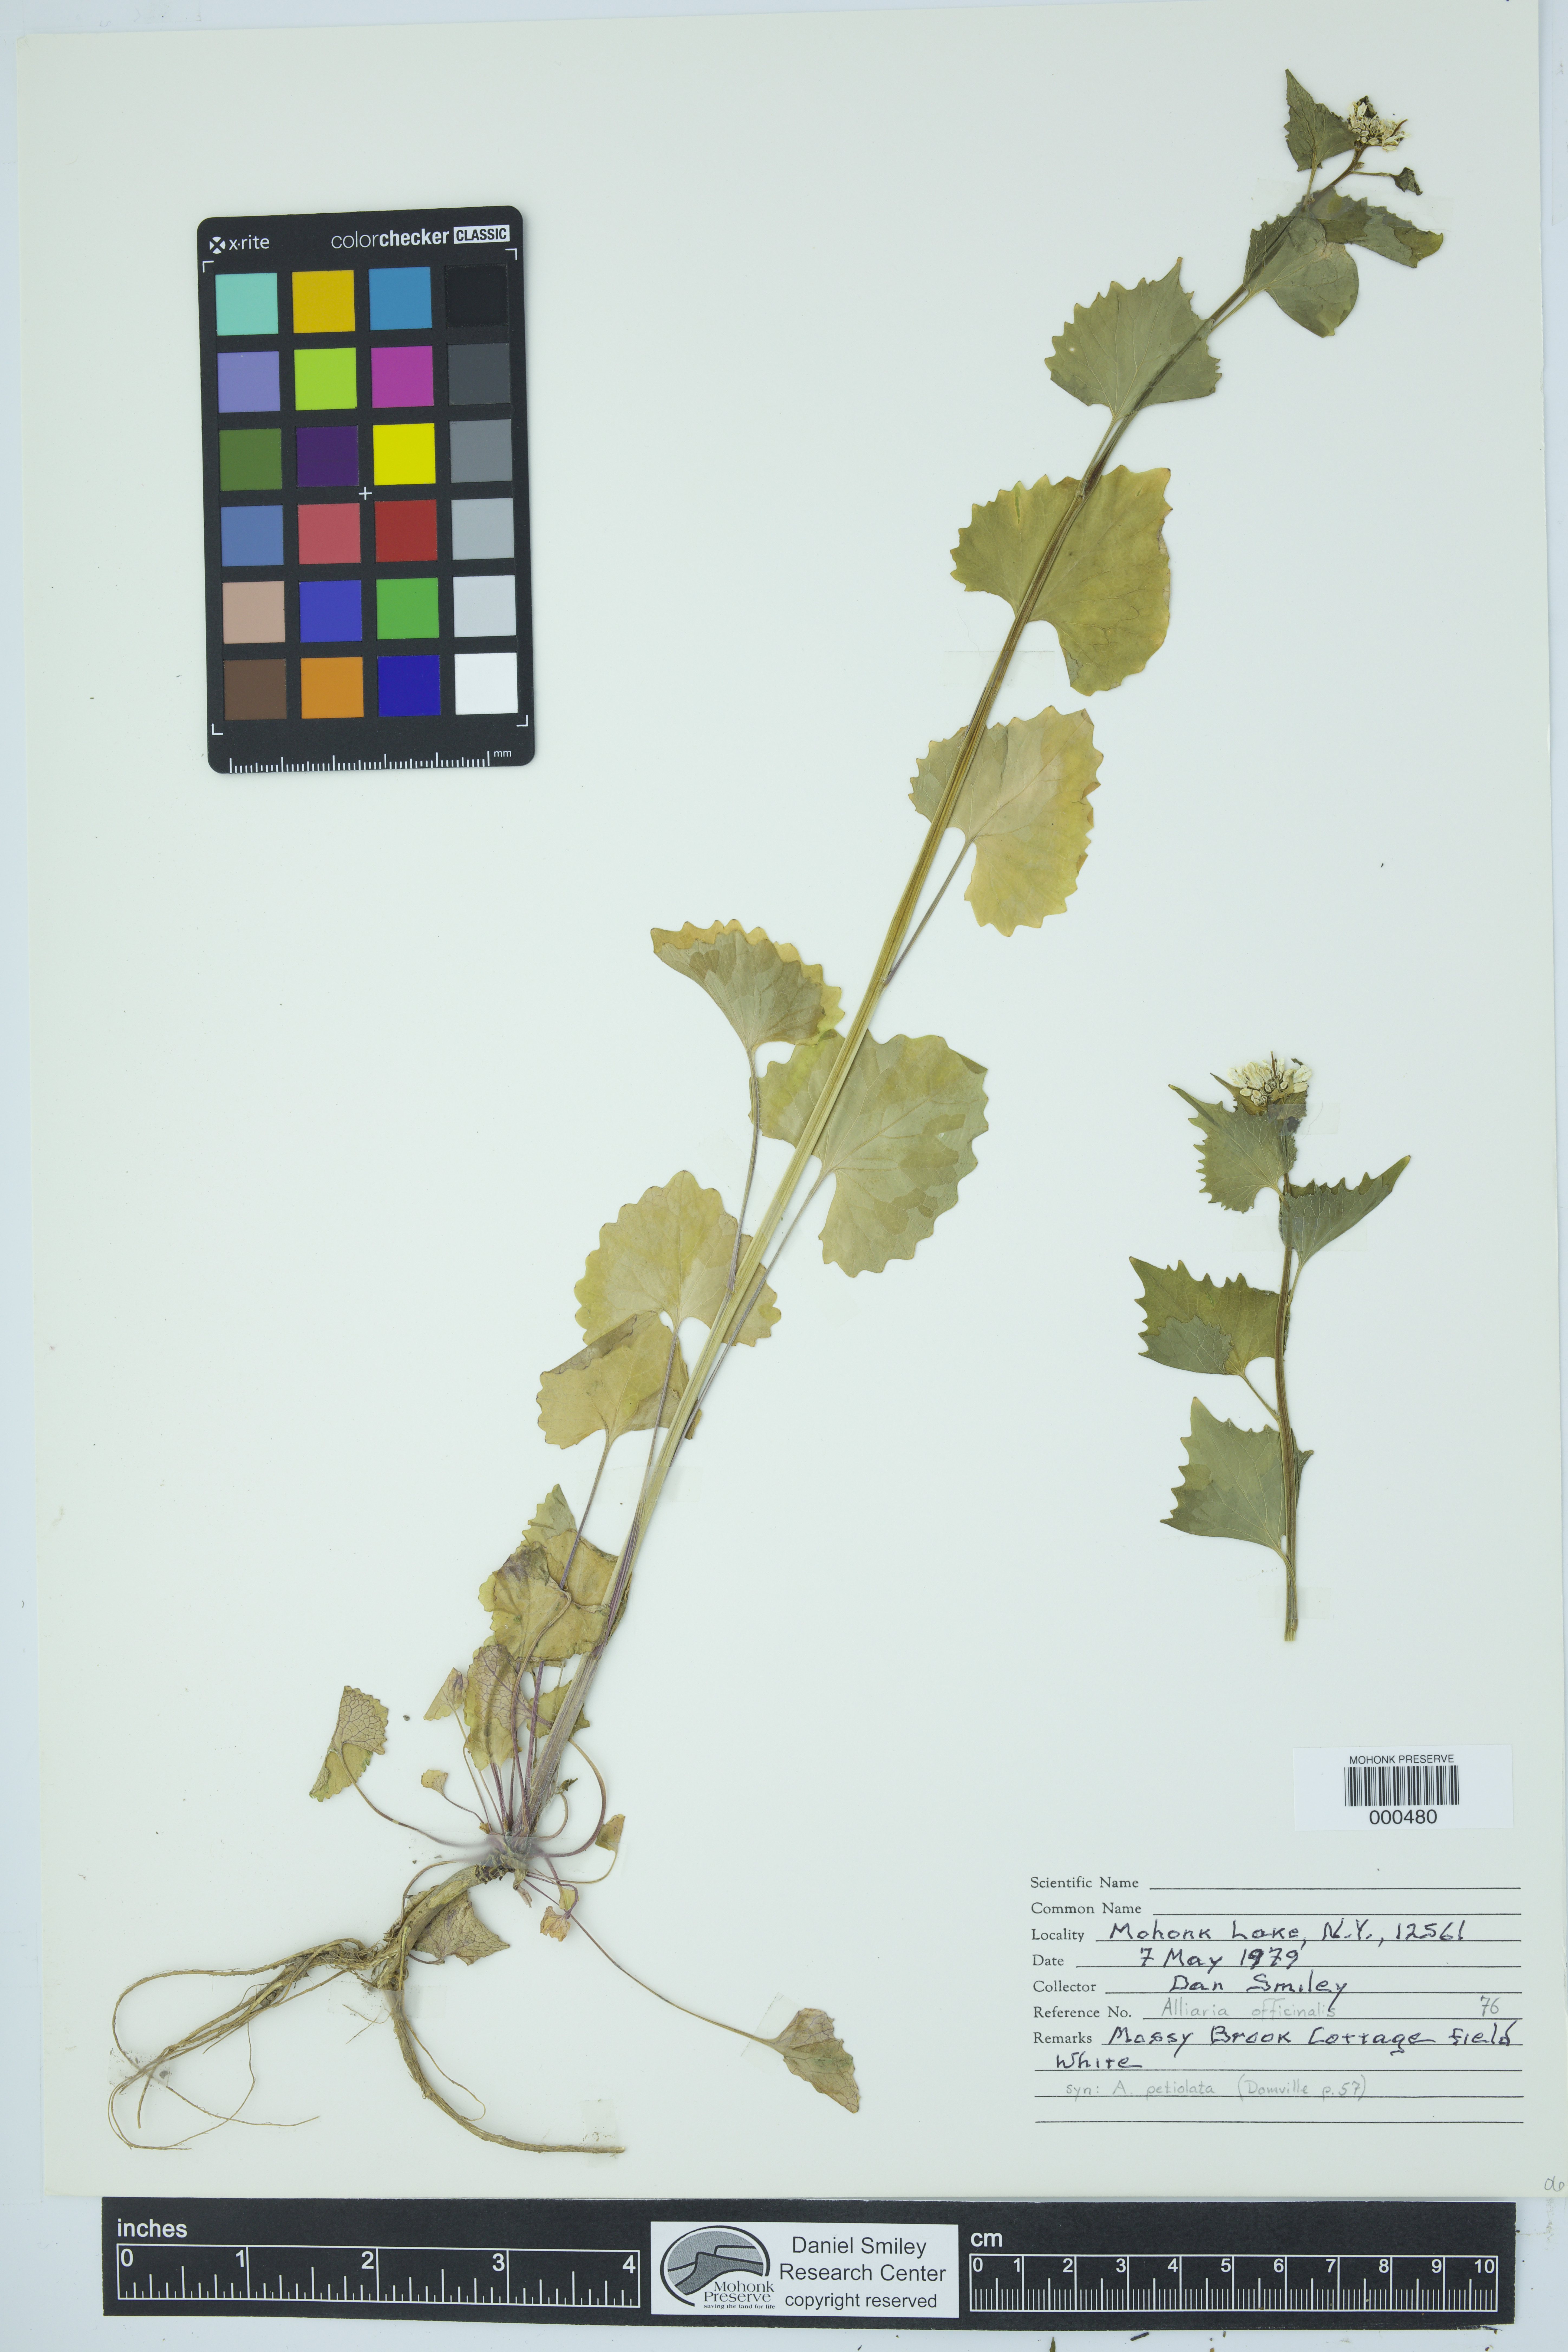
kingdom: Plantae
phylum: Tracheophyta
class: Magnoliopsida
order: Brassicales
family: Brassicaceae
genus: Alliaria
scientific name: Alliaria petiolata
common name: Garlic mustard
